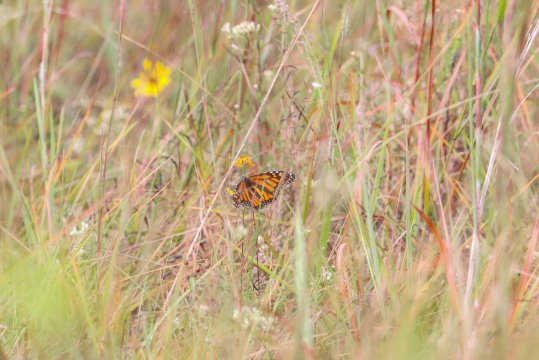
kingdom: Animalia
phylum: Arthropoda
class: Insecta
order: Lepidoptera
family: Nymphalidae
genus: Danaus
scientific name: Danaus plexippus
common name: Monarch
